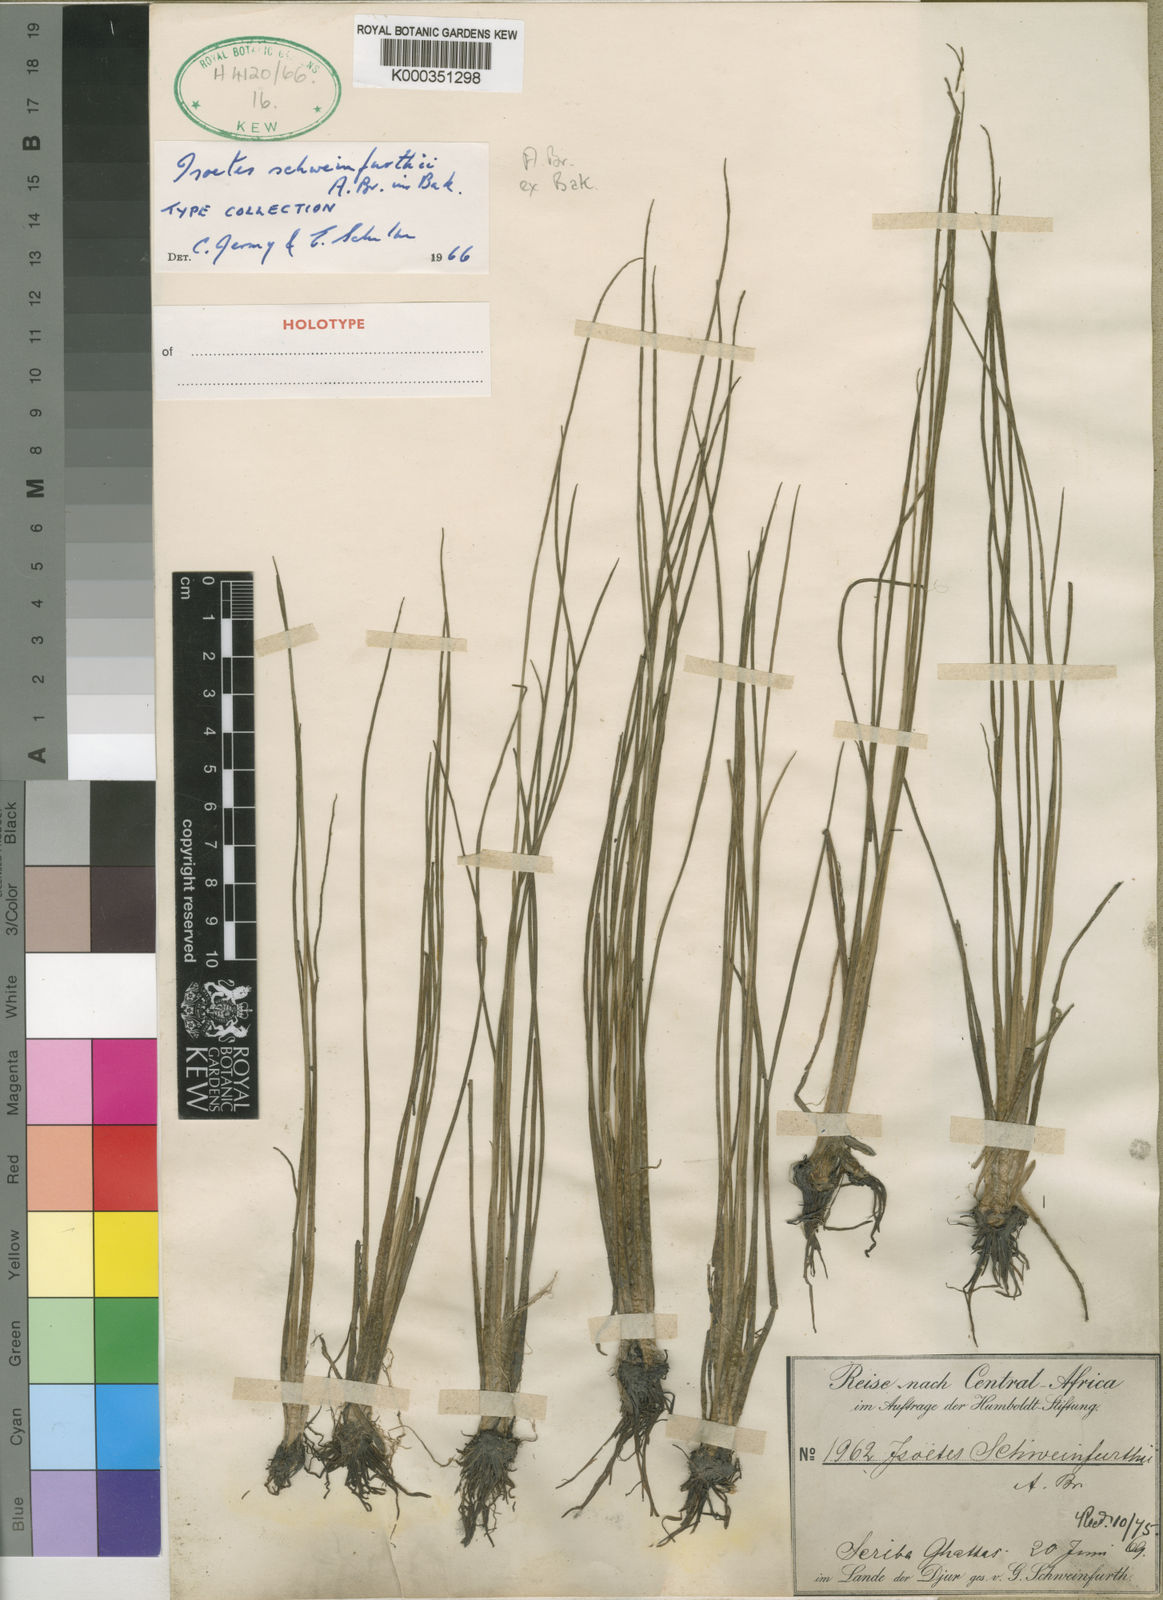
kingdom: Plantae
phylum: Tracheophyta
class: Lycopodiopsida
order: Isoetales
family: Isoetaceae
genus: Isoetes
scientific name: Isoetes
